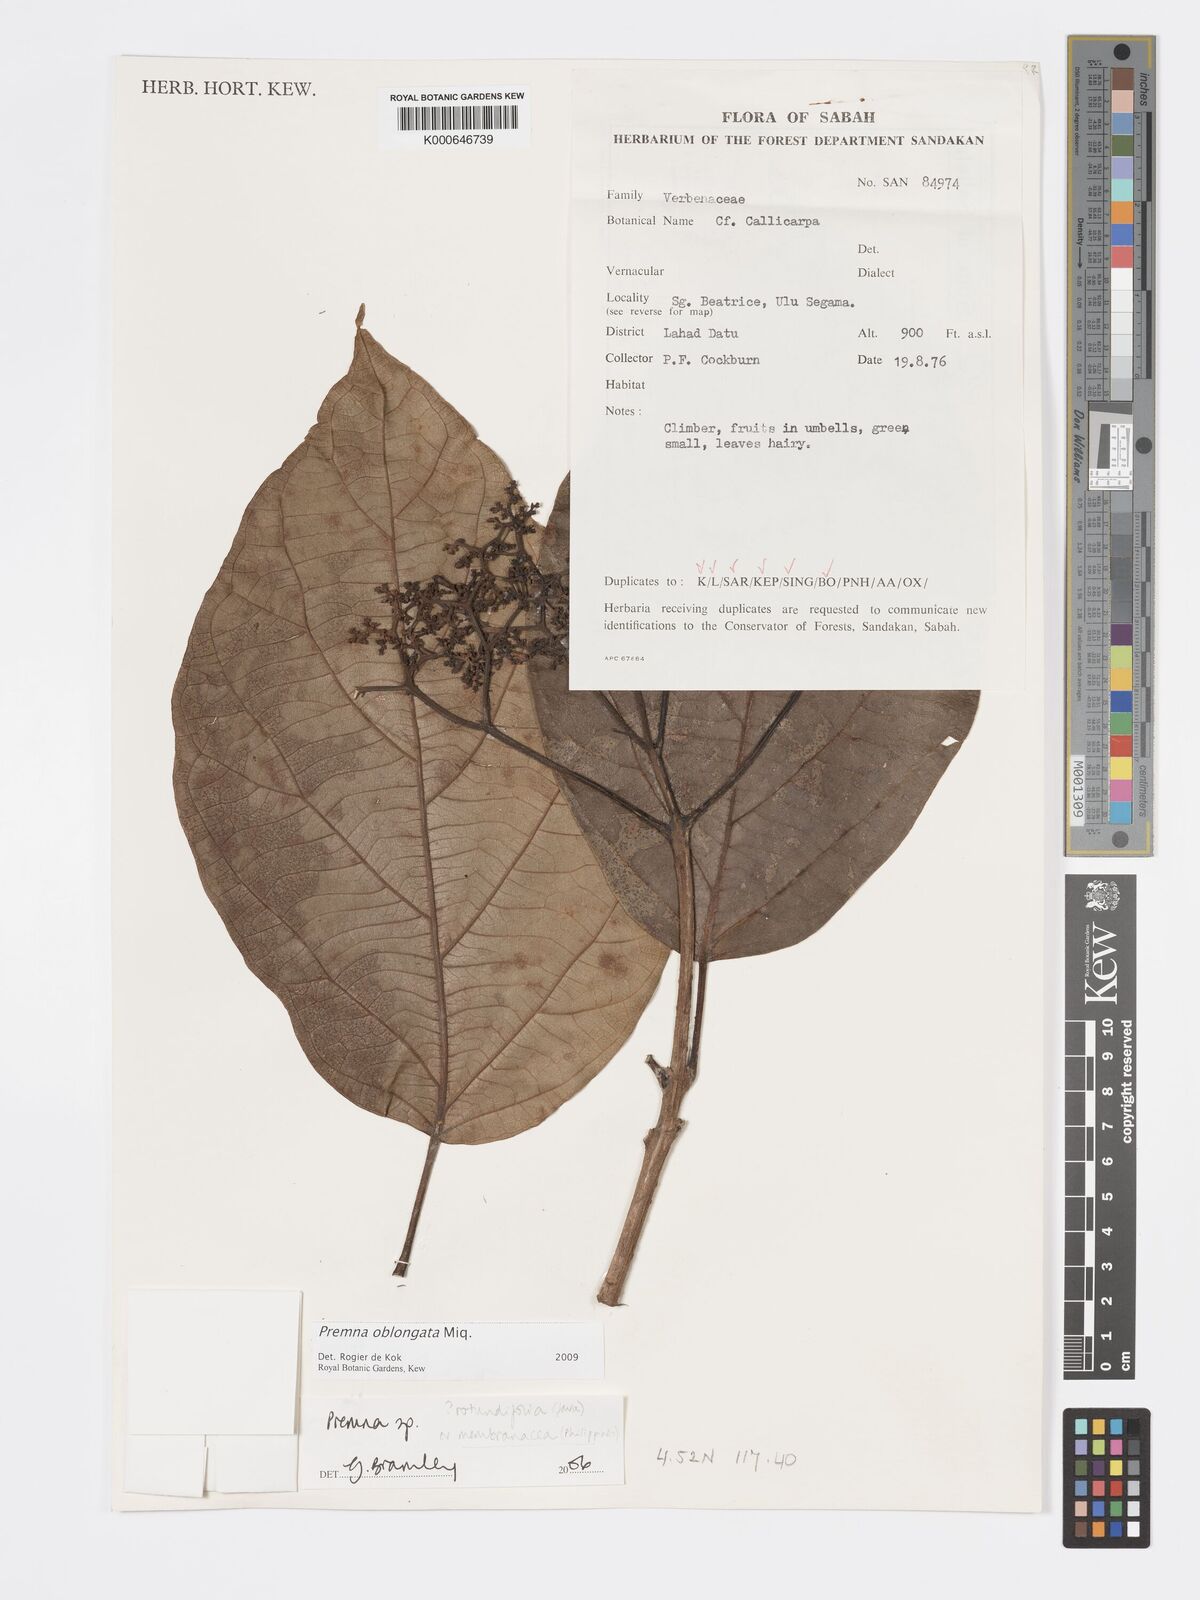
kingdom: Plantae
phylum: Tracheophyta
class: Magnoliopsida
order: Lamiales
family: Lamiaceae
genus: Premna
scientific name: Premna oblongata
